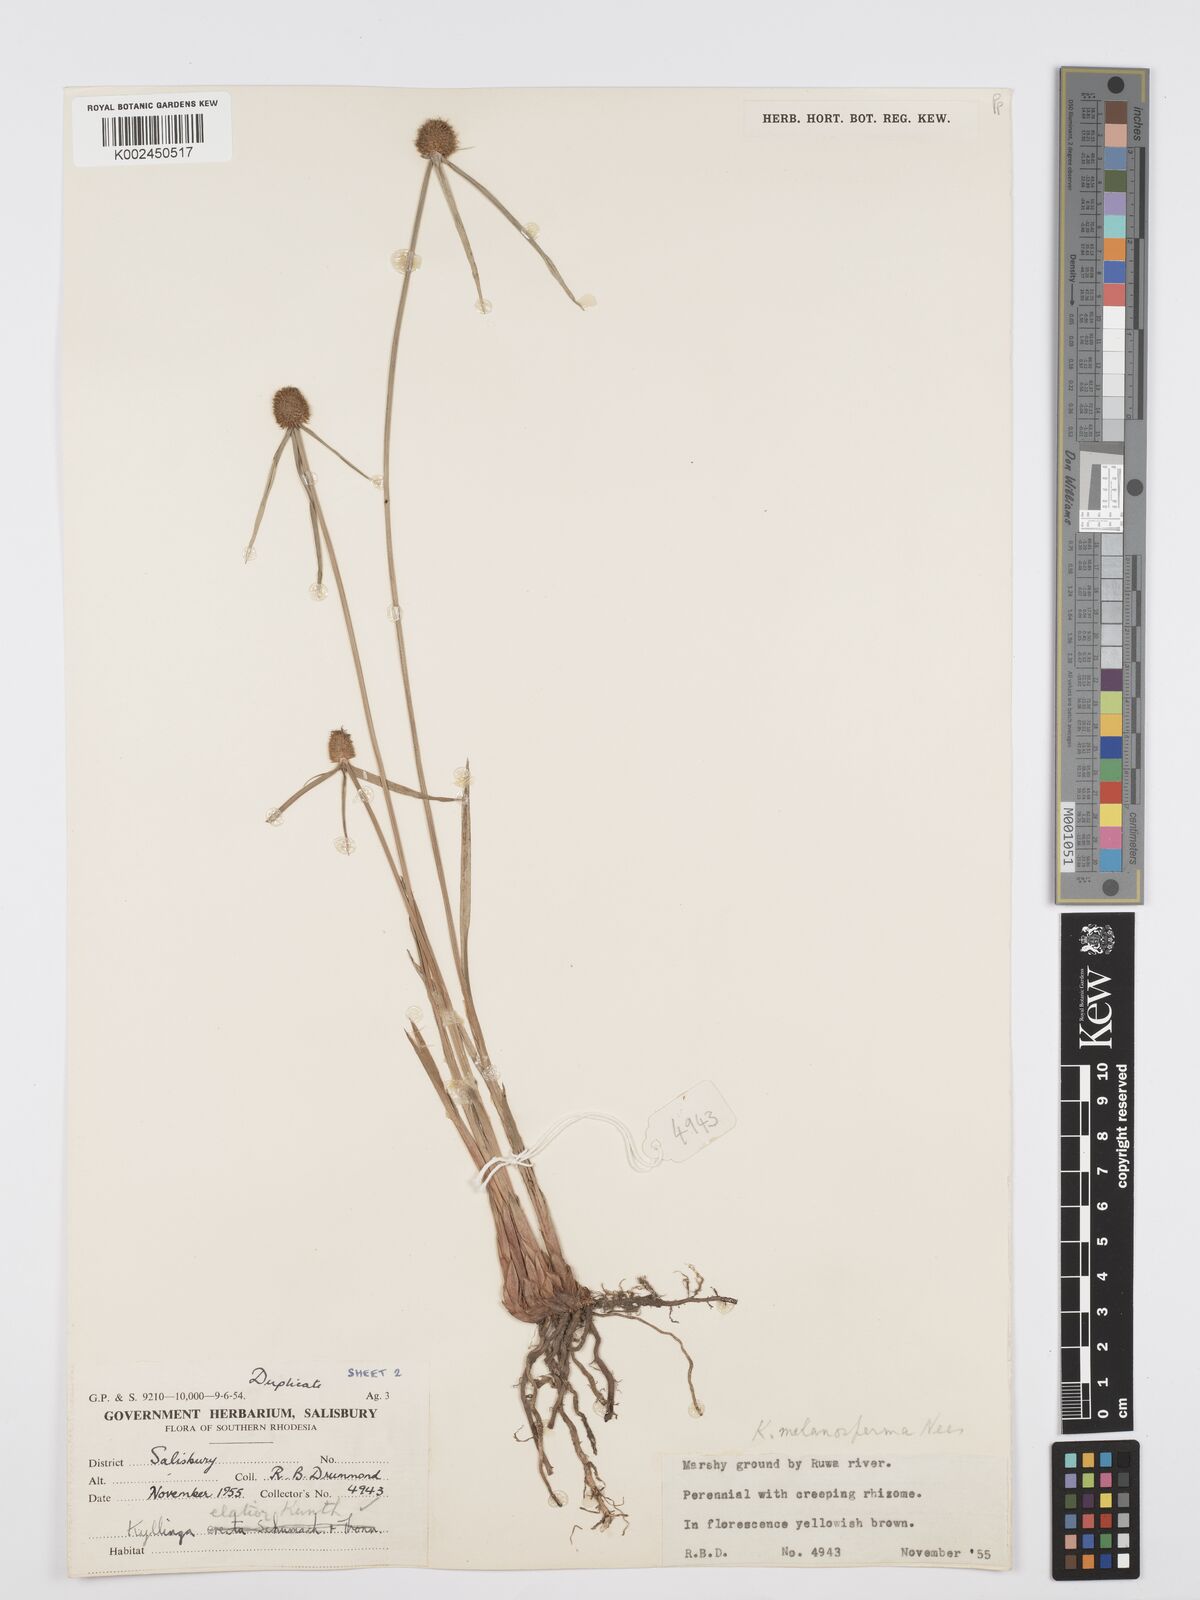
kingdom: Plantae
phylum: Tracheophyta
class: Liliopsida
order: Poales
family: Cyperaceae
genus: Cyperus
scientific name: Cyperus melanospermus
